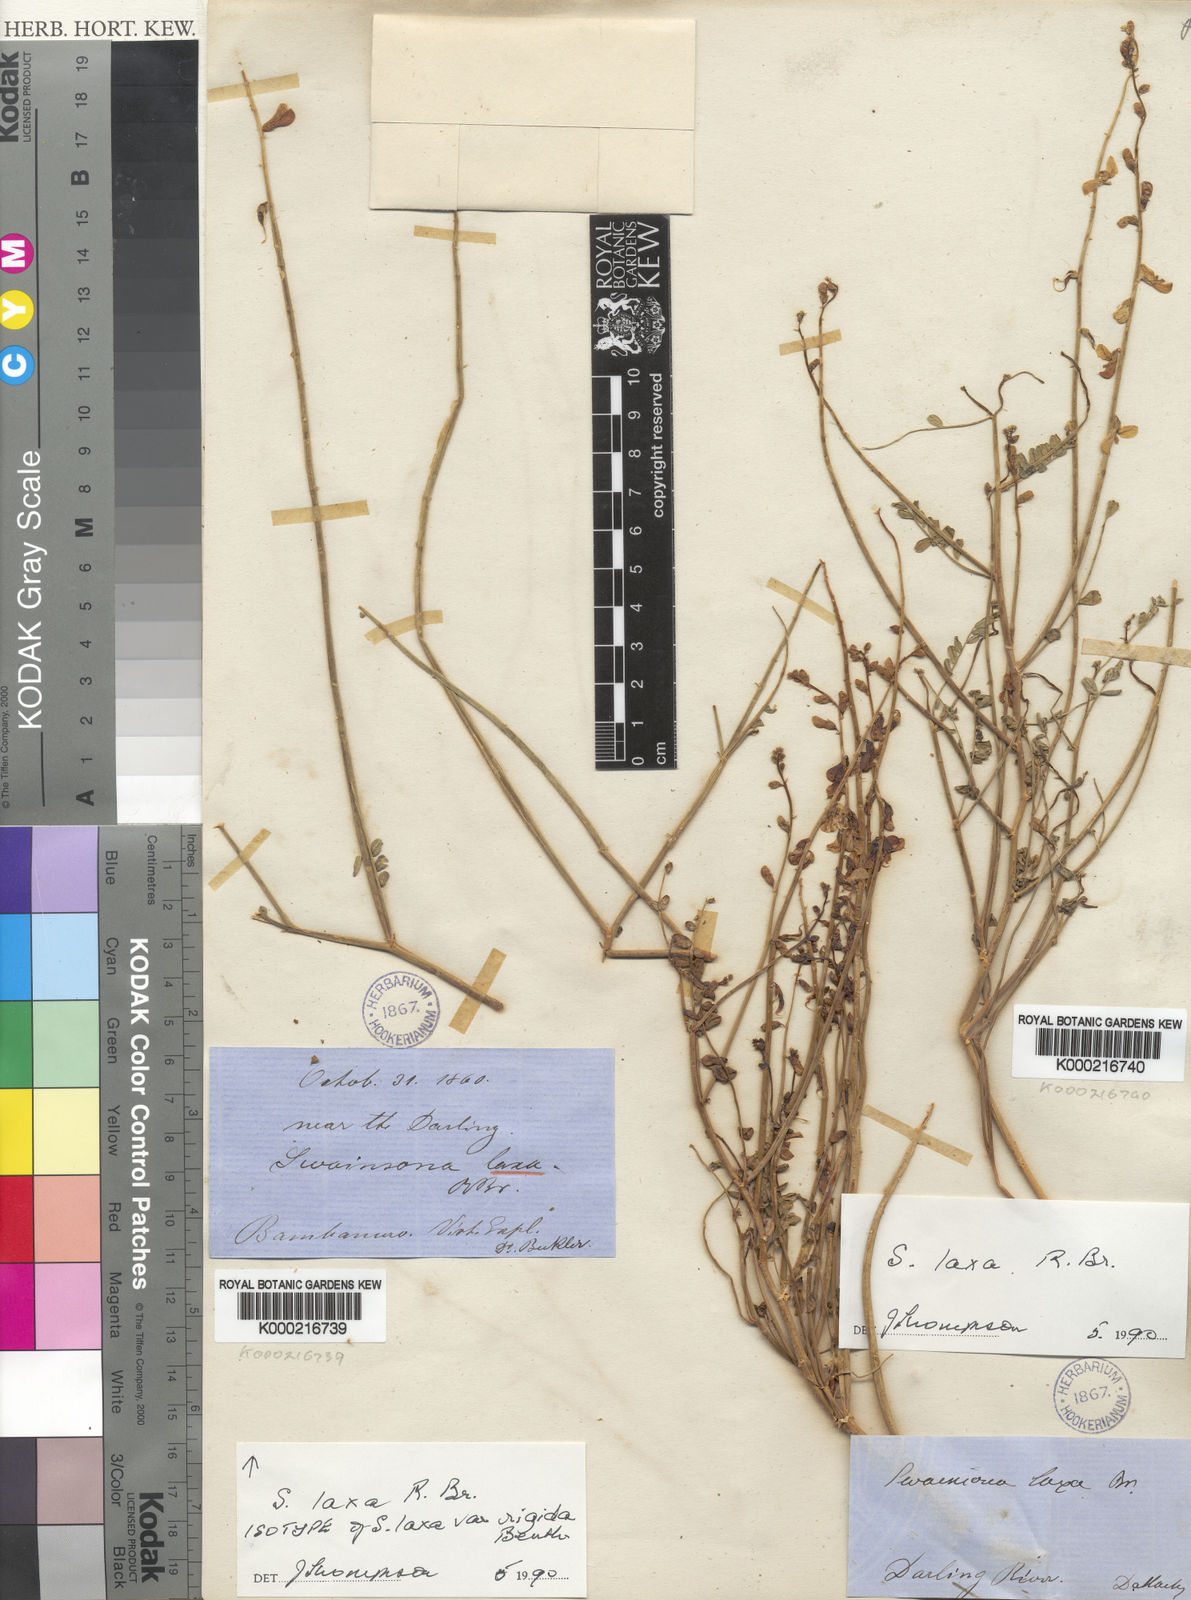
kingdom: Plantae
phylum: Tracheophyta
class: Magnoliopsida
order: Fabales
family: Fabaceae
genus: Swainsona
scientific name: Swainsona laxa
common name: Yellow darling pea
